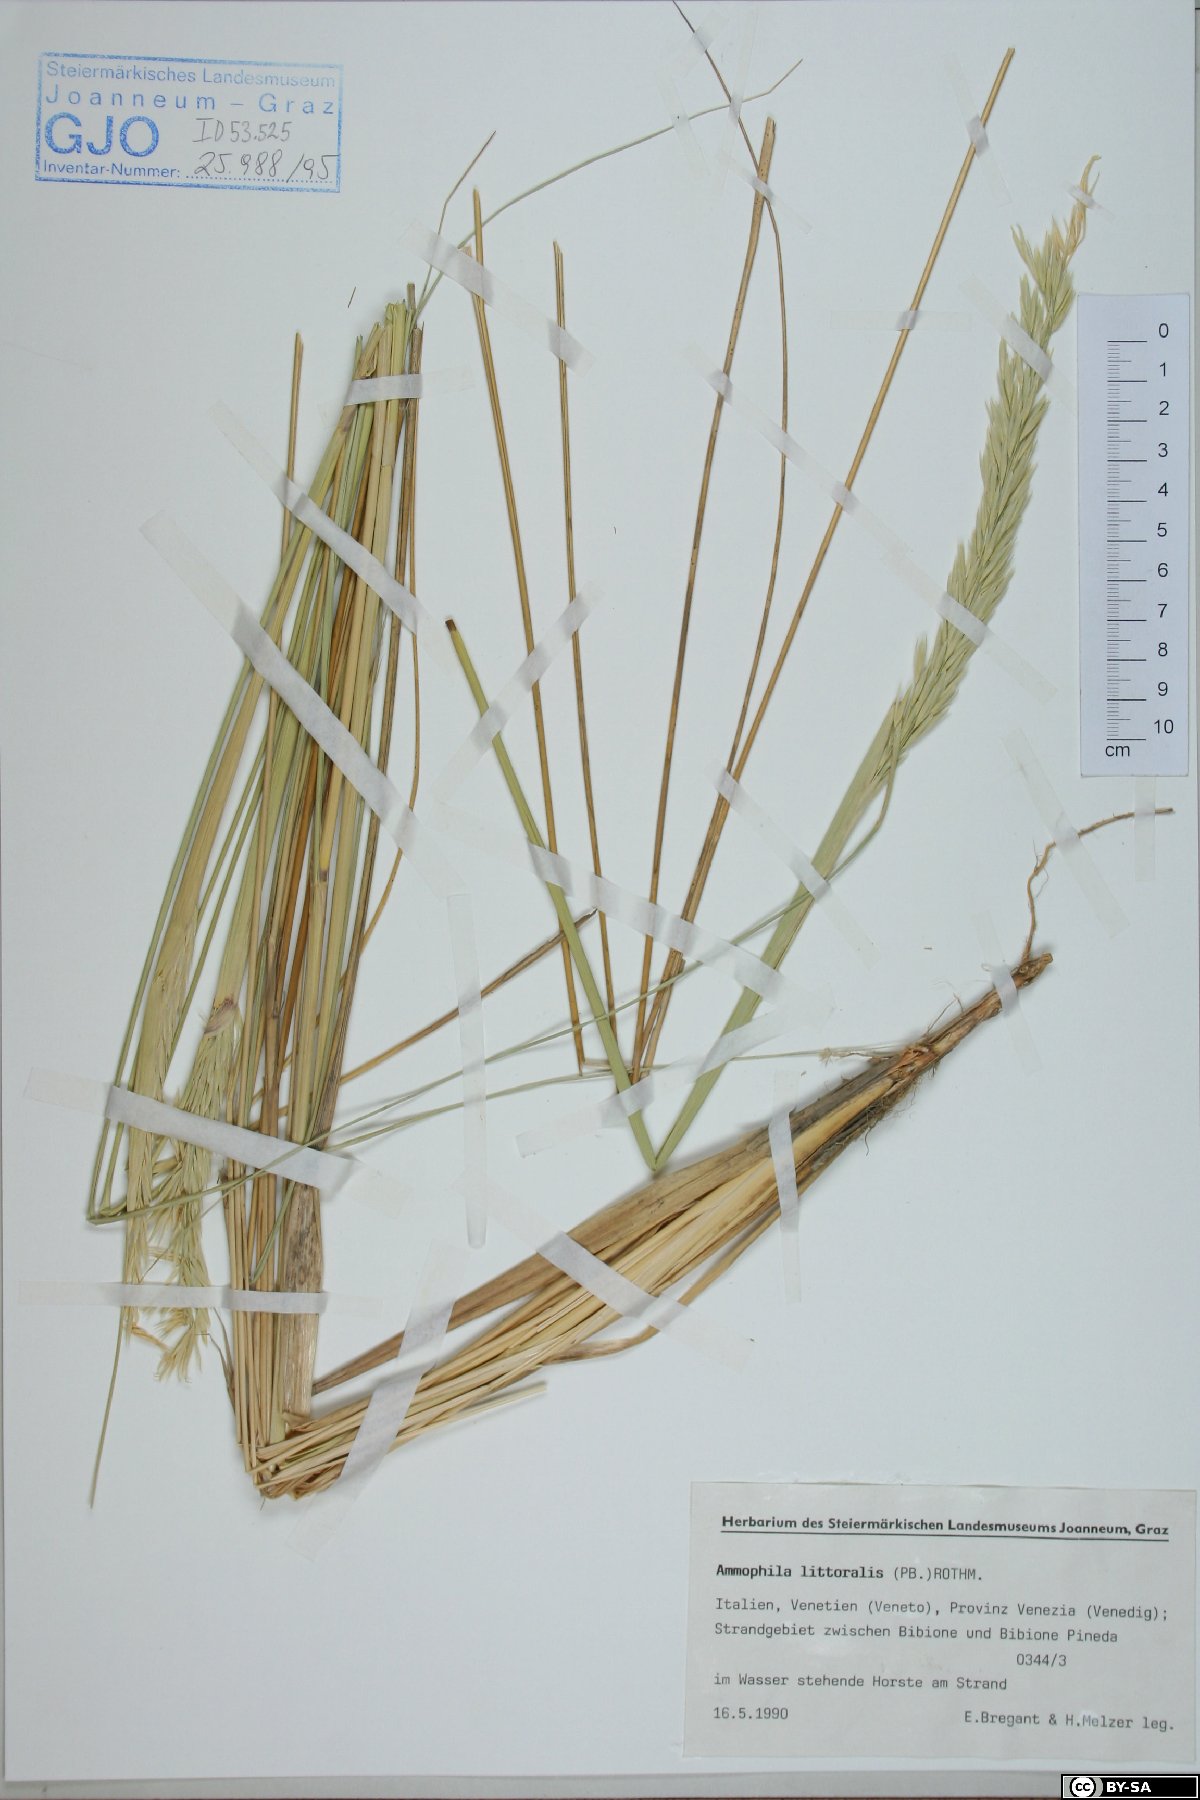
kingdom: Plantae
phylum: Tracheophyta
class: Liliopsida
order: Poales
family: Poaceae
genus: Calamagrostis
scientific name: Calamagrostis arenaria
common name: European beachgrass
